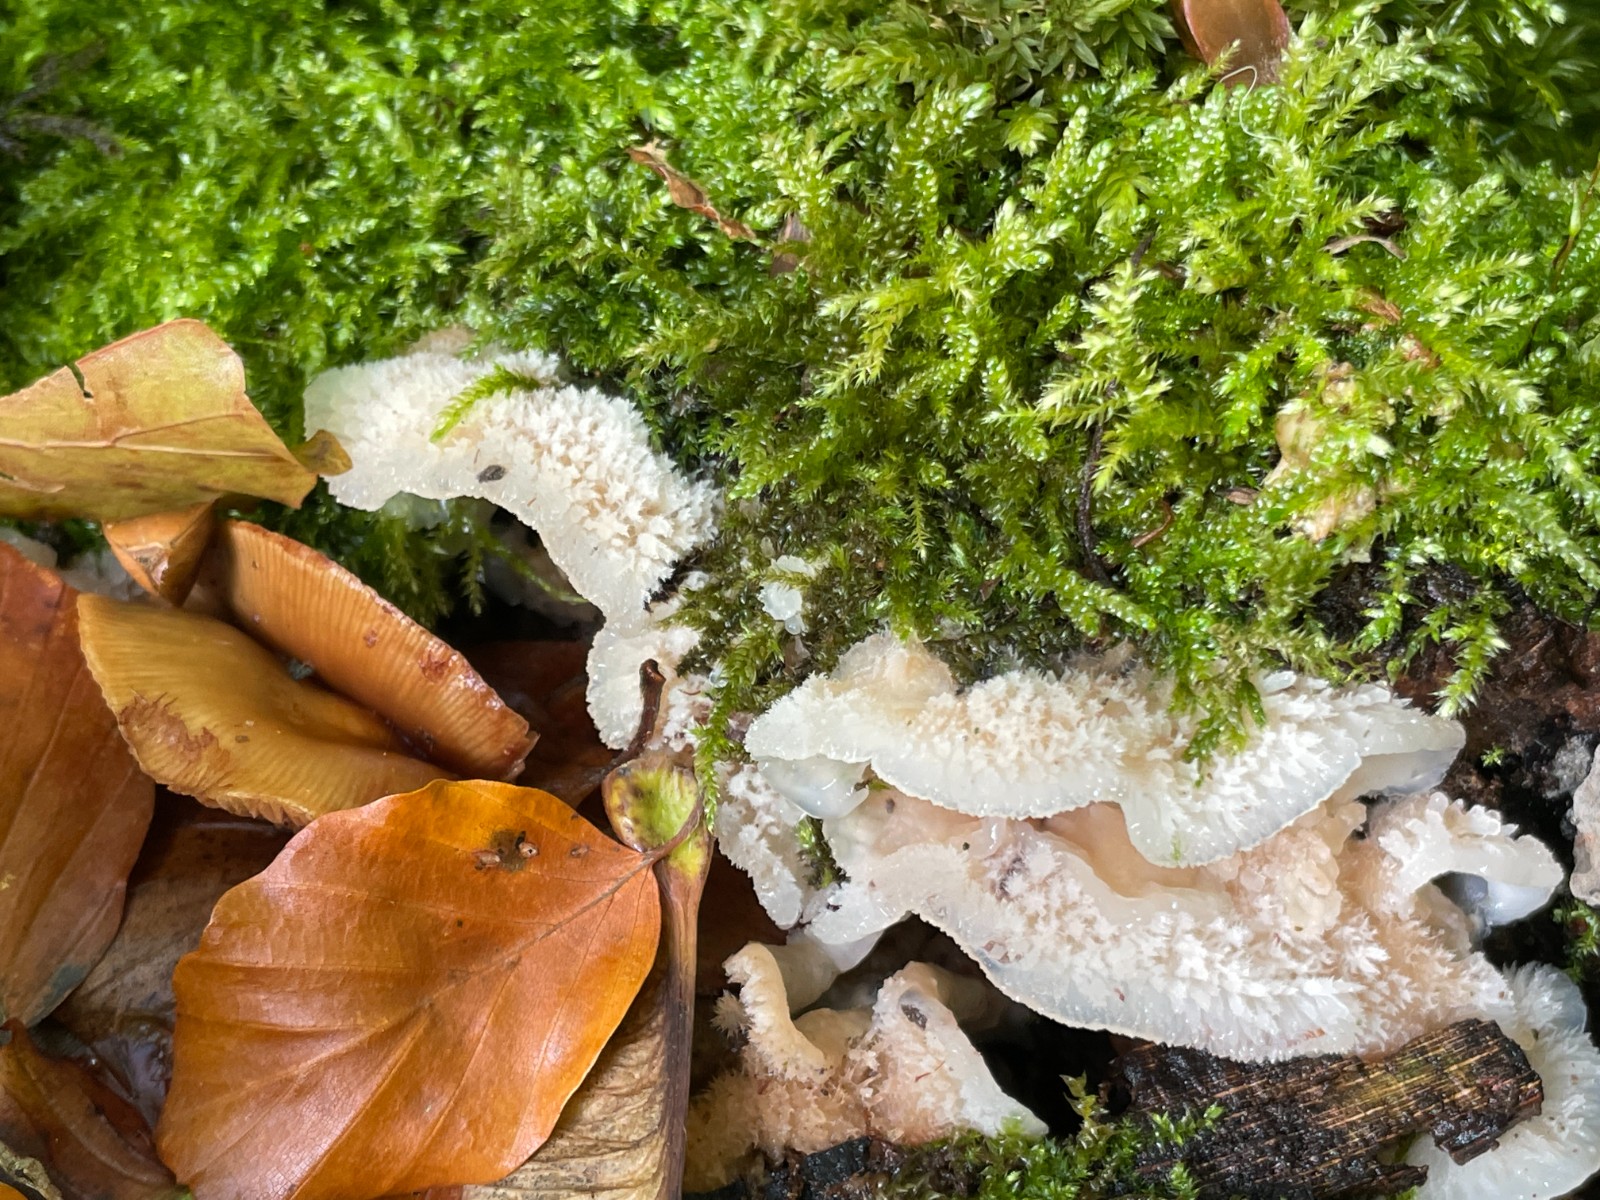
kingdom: Fungi
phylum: Basidiomycota
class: Agaricomycetes
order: Polyporales
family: Meruliaceae
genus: Phlebia
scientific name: Phlebia tremellosa
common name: bævrende åresvamp
